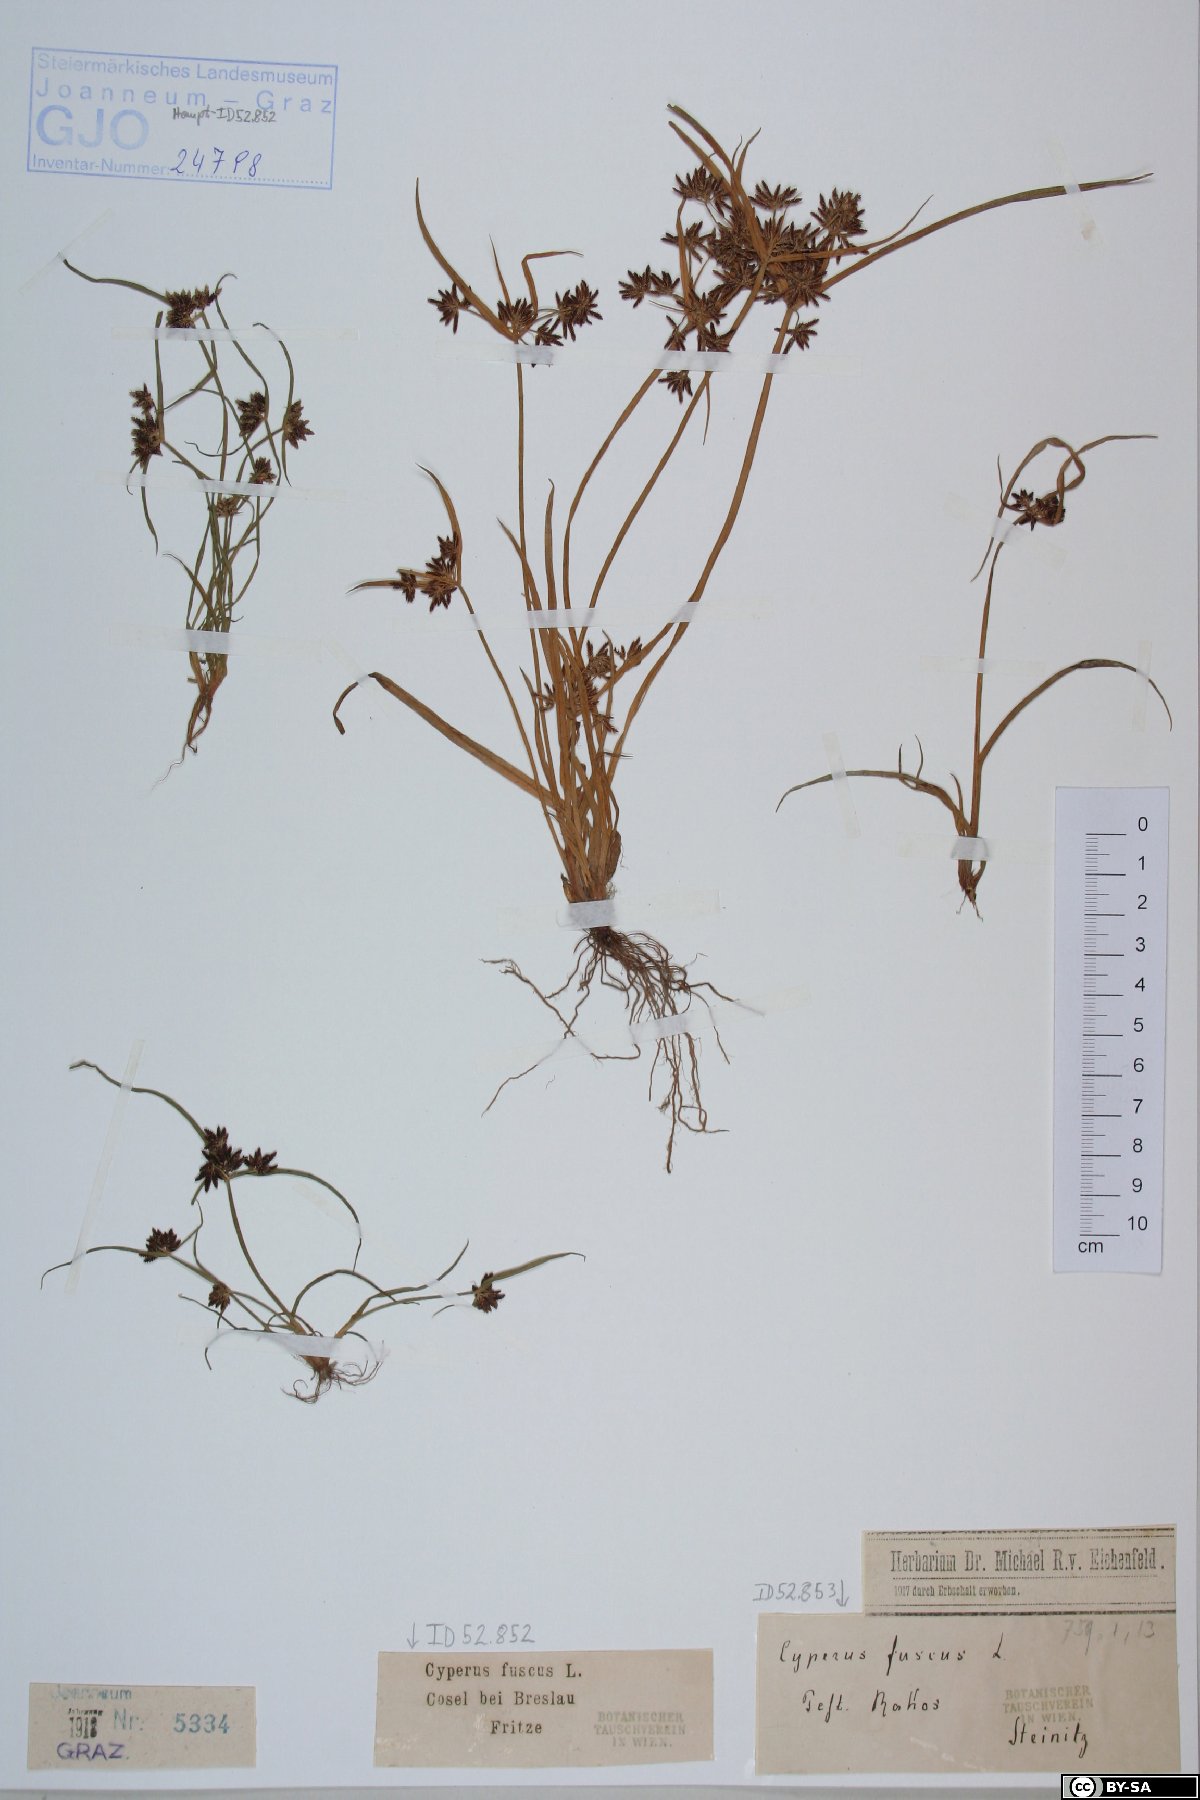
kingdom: Plantae
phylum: Tracheophyta
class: Liliopsida
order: Poales
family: Cyperaceae
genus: Cyperus
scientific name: Cyperus fuscus
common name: Brown galingale
